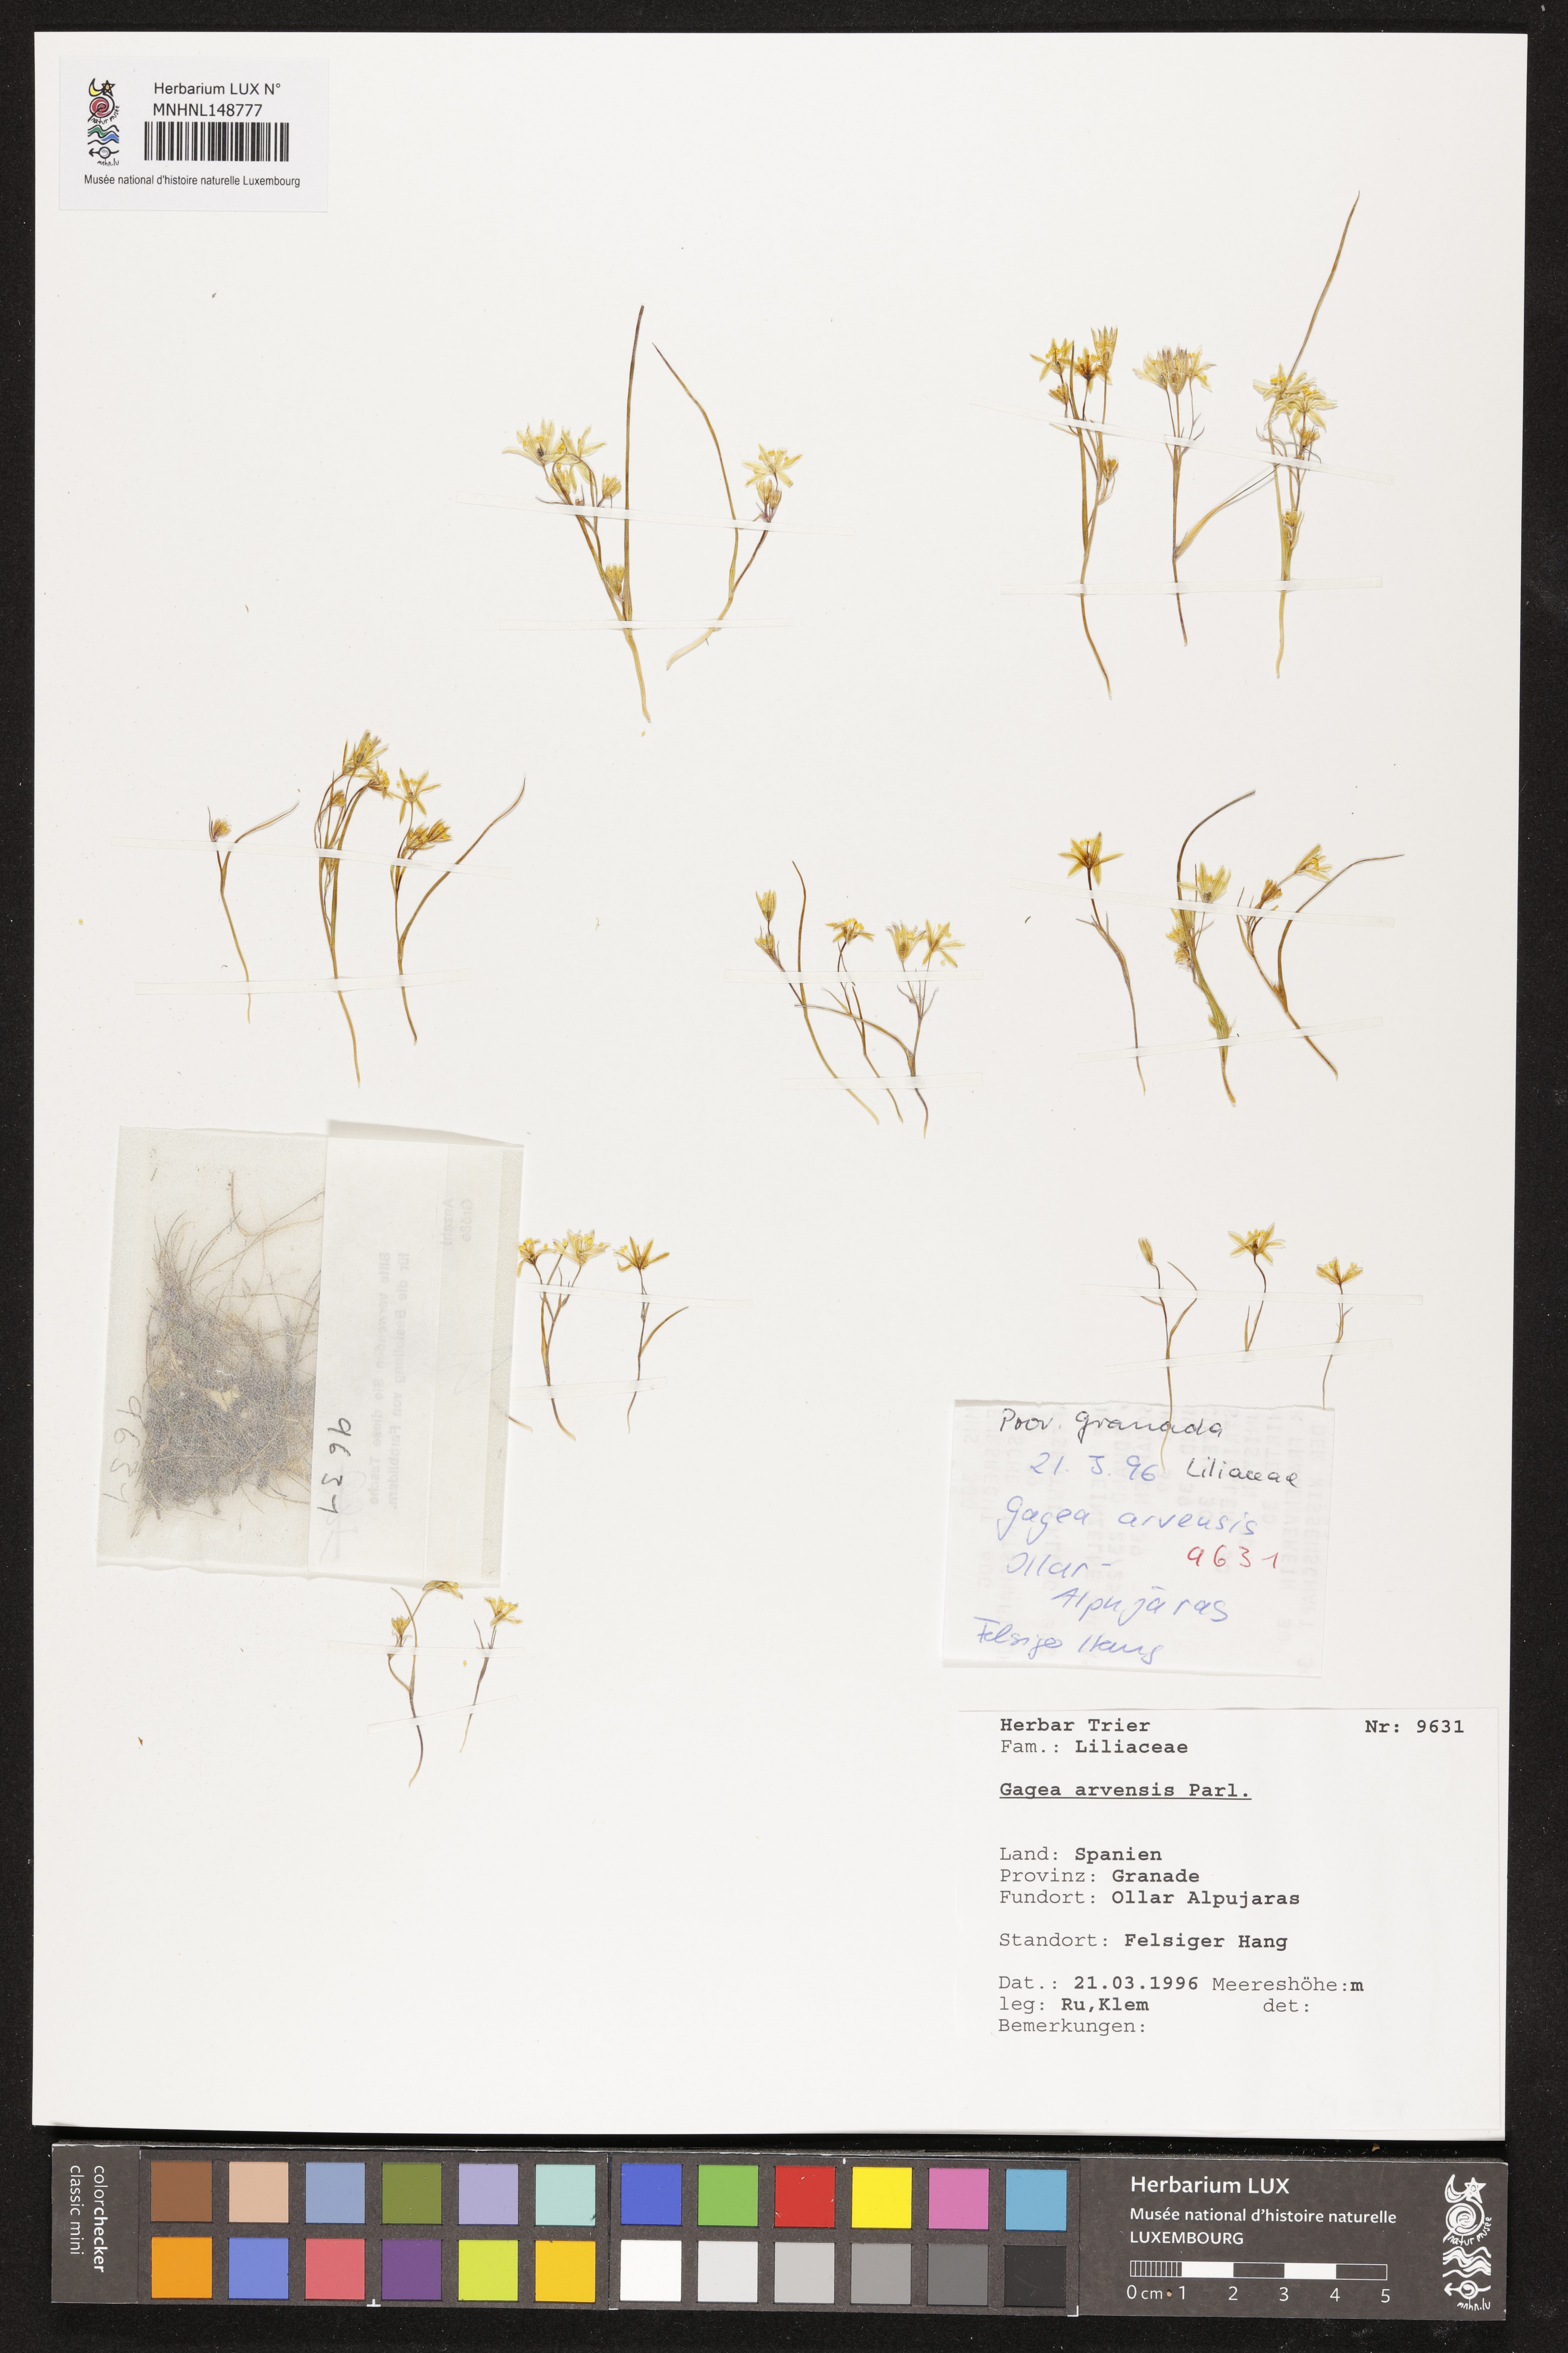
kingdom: Plantae
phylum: Tracheophyta
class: Liliopsida
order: Liliales
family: Liliaceae
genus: Gagea
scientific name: Gagea minima
